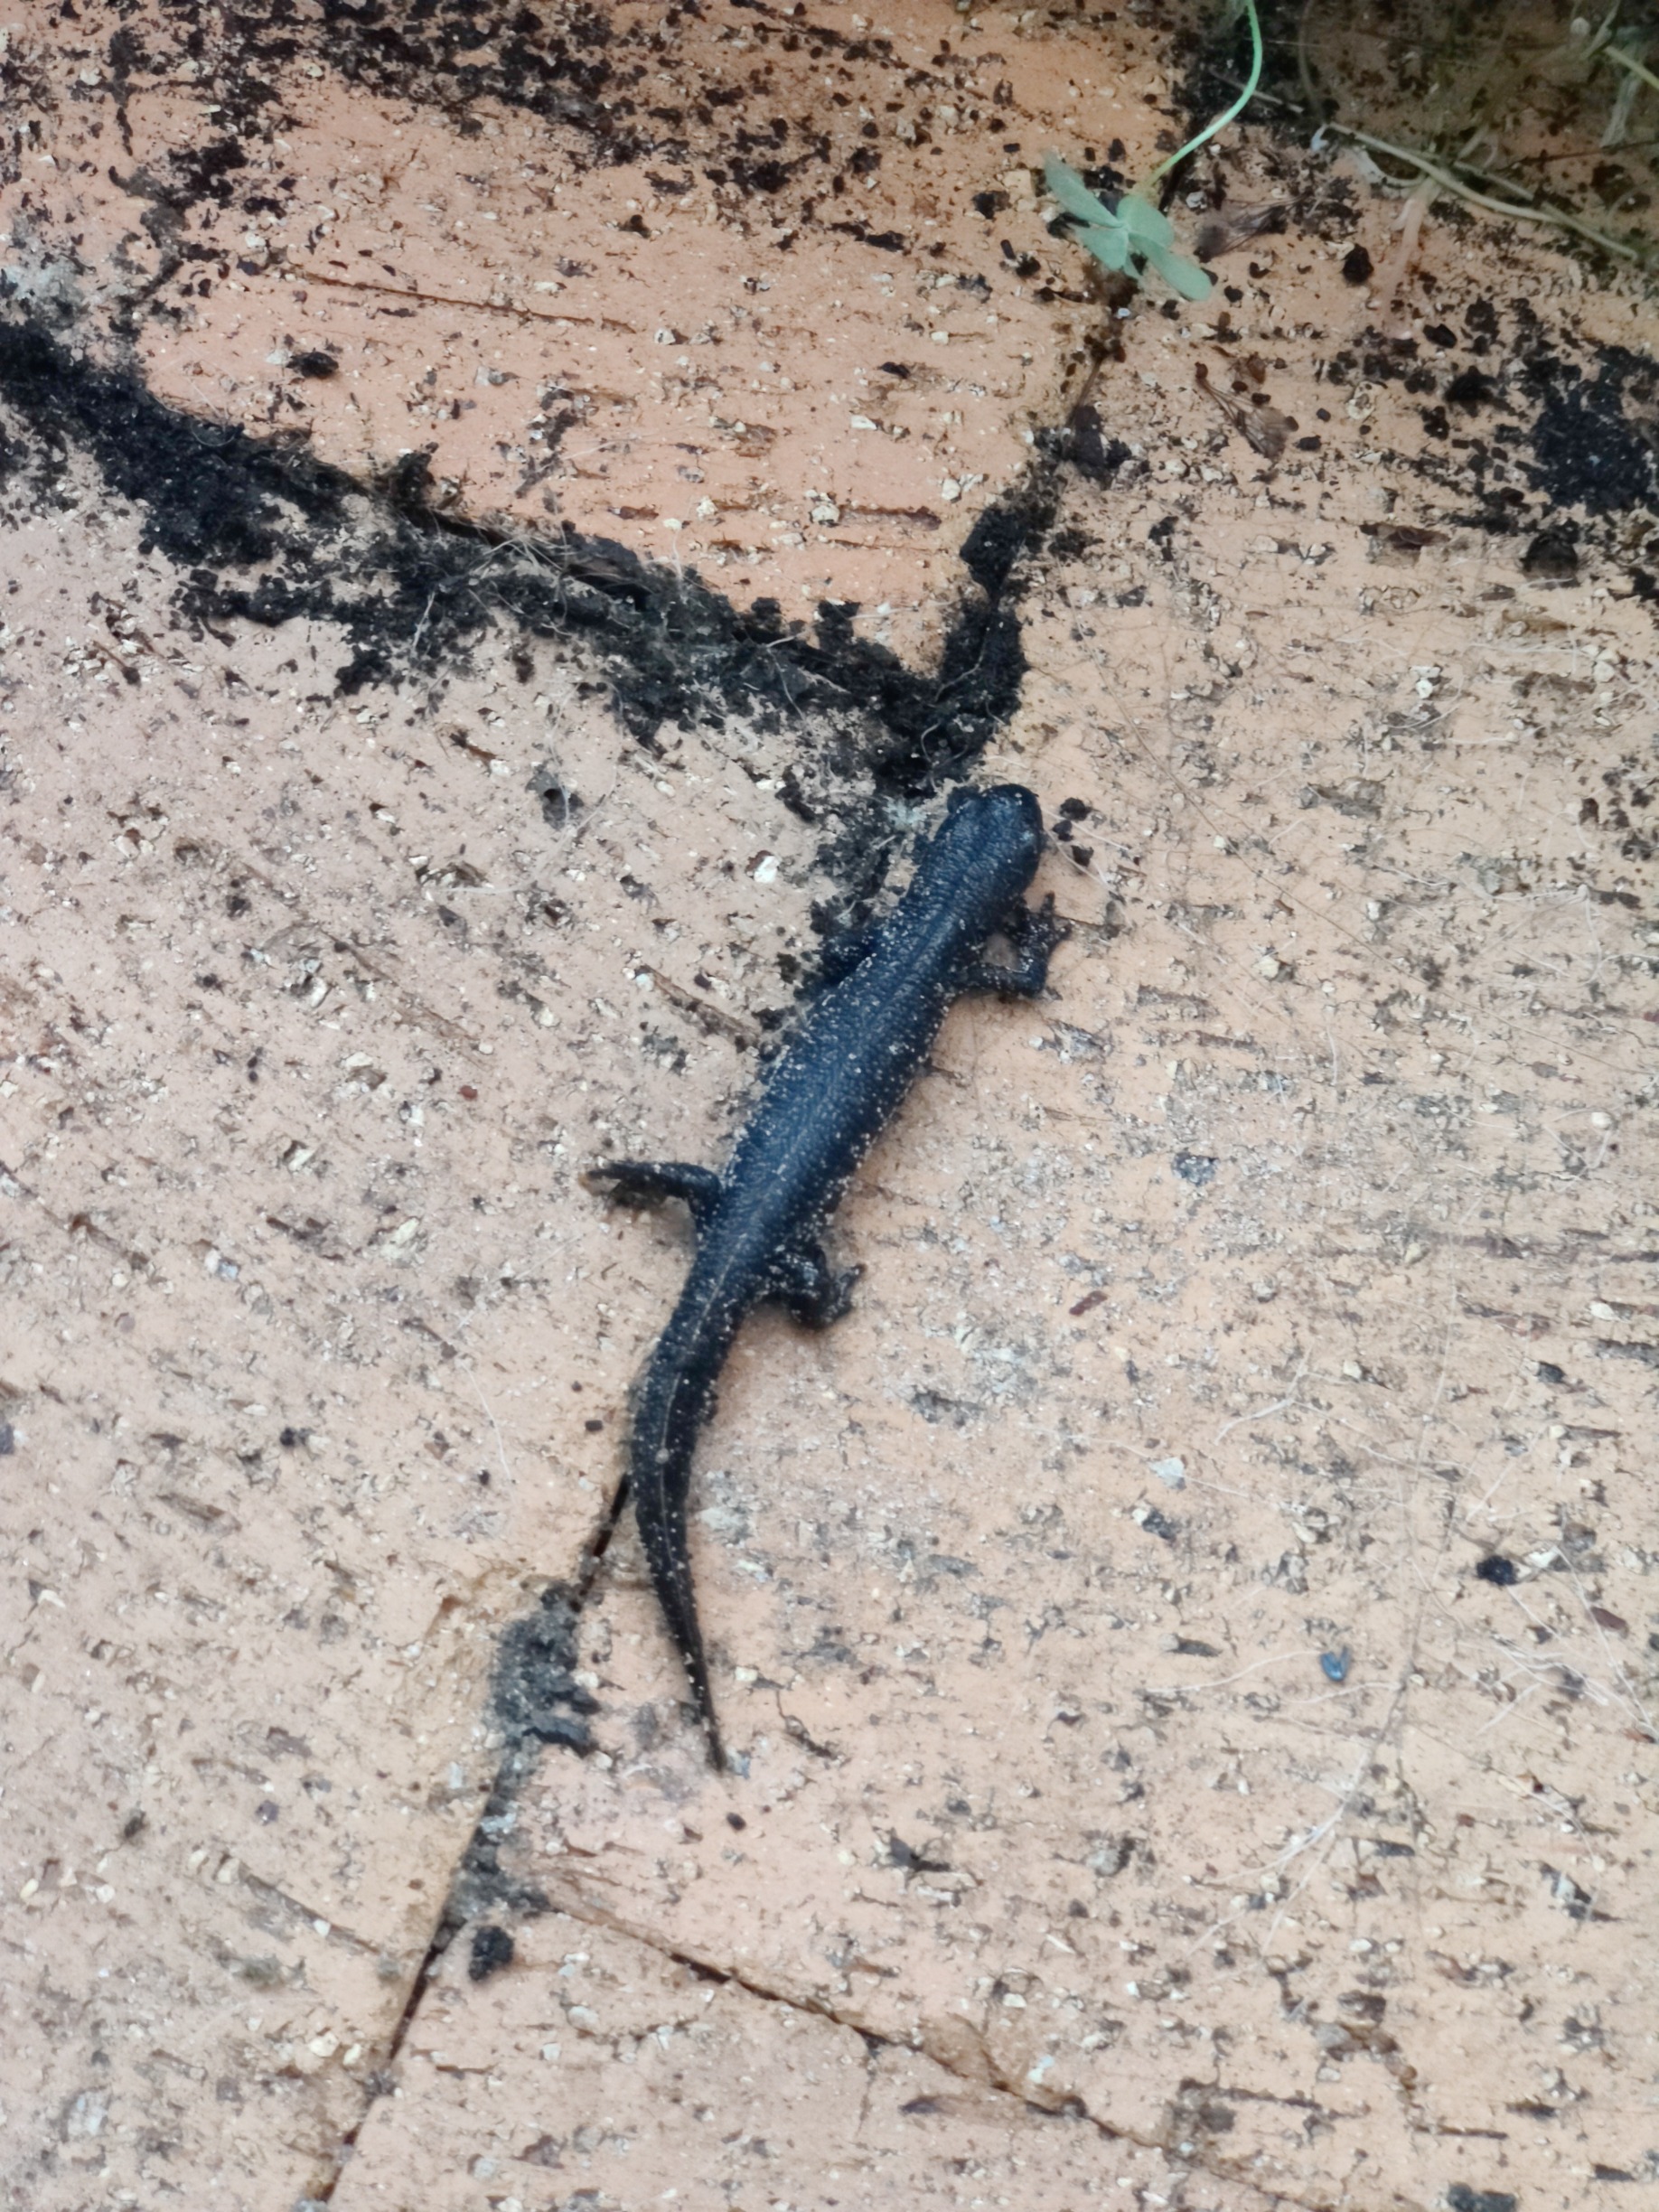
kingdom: Animalia
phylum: Chordata
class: Amphibia
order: Caudata
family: Salamandridae
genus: Triturus
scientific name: Triturus cristatus
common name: Stor vandsalamander
